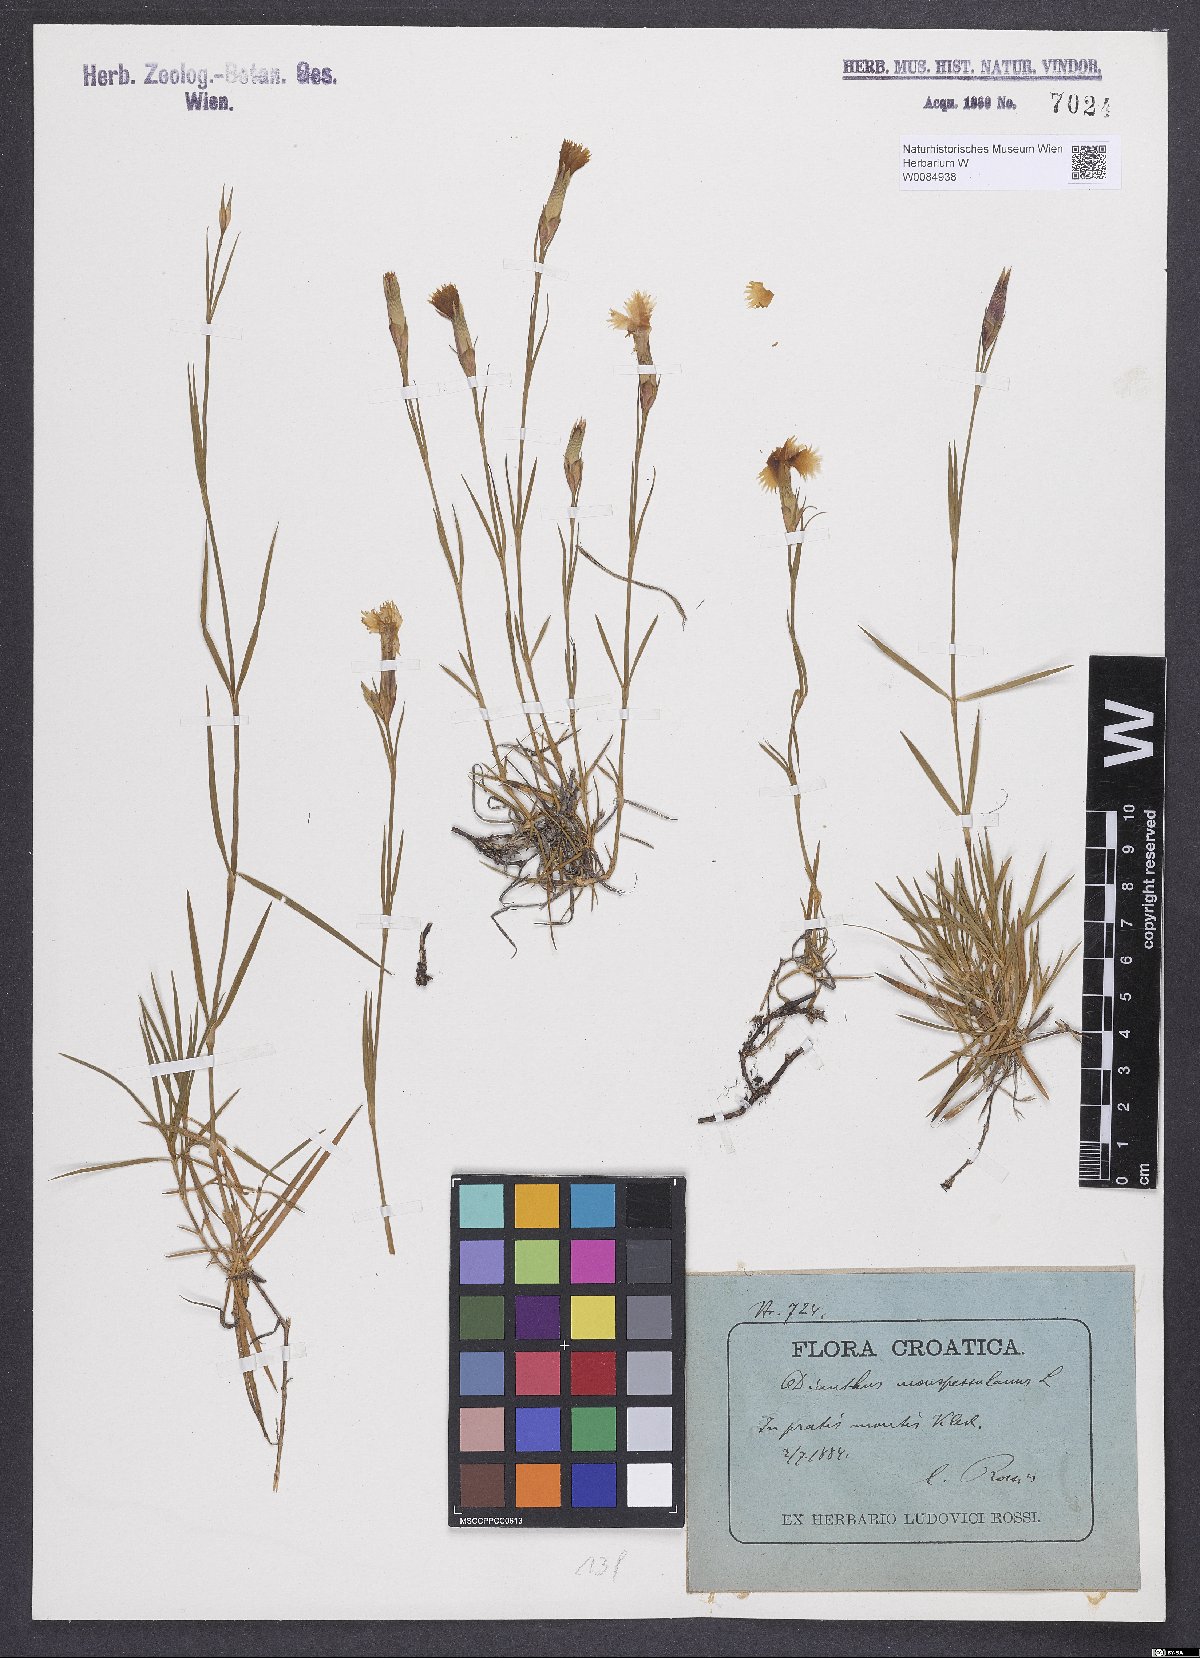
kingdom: Plantae
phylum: Tracheophyta
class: Magnoliopsida
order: Caryophyllales
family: Caryophyllaceae
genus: Dianthus
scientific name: Dianthus hyssopifolius
